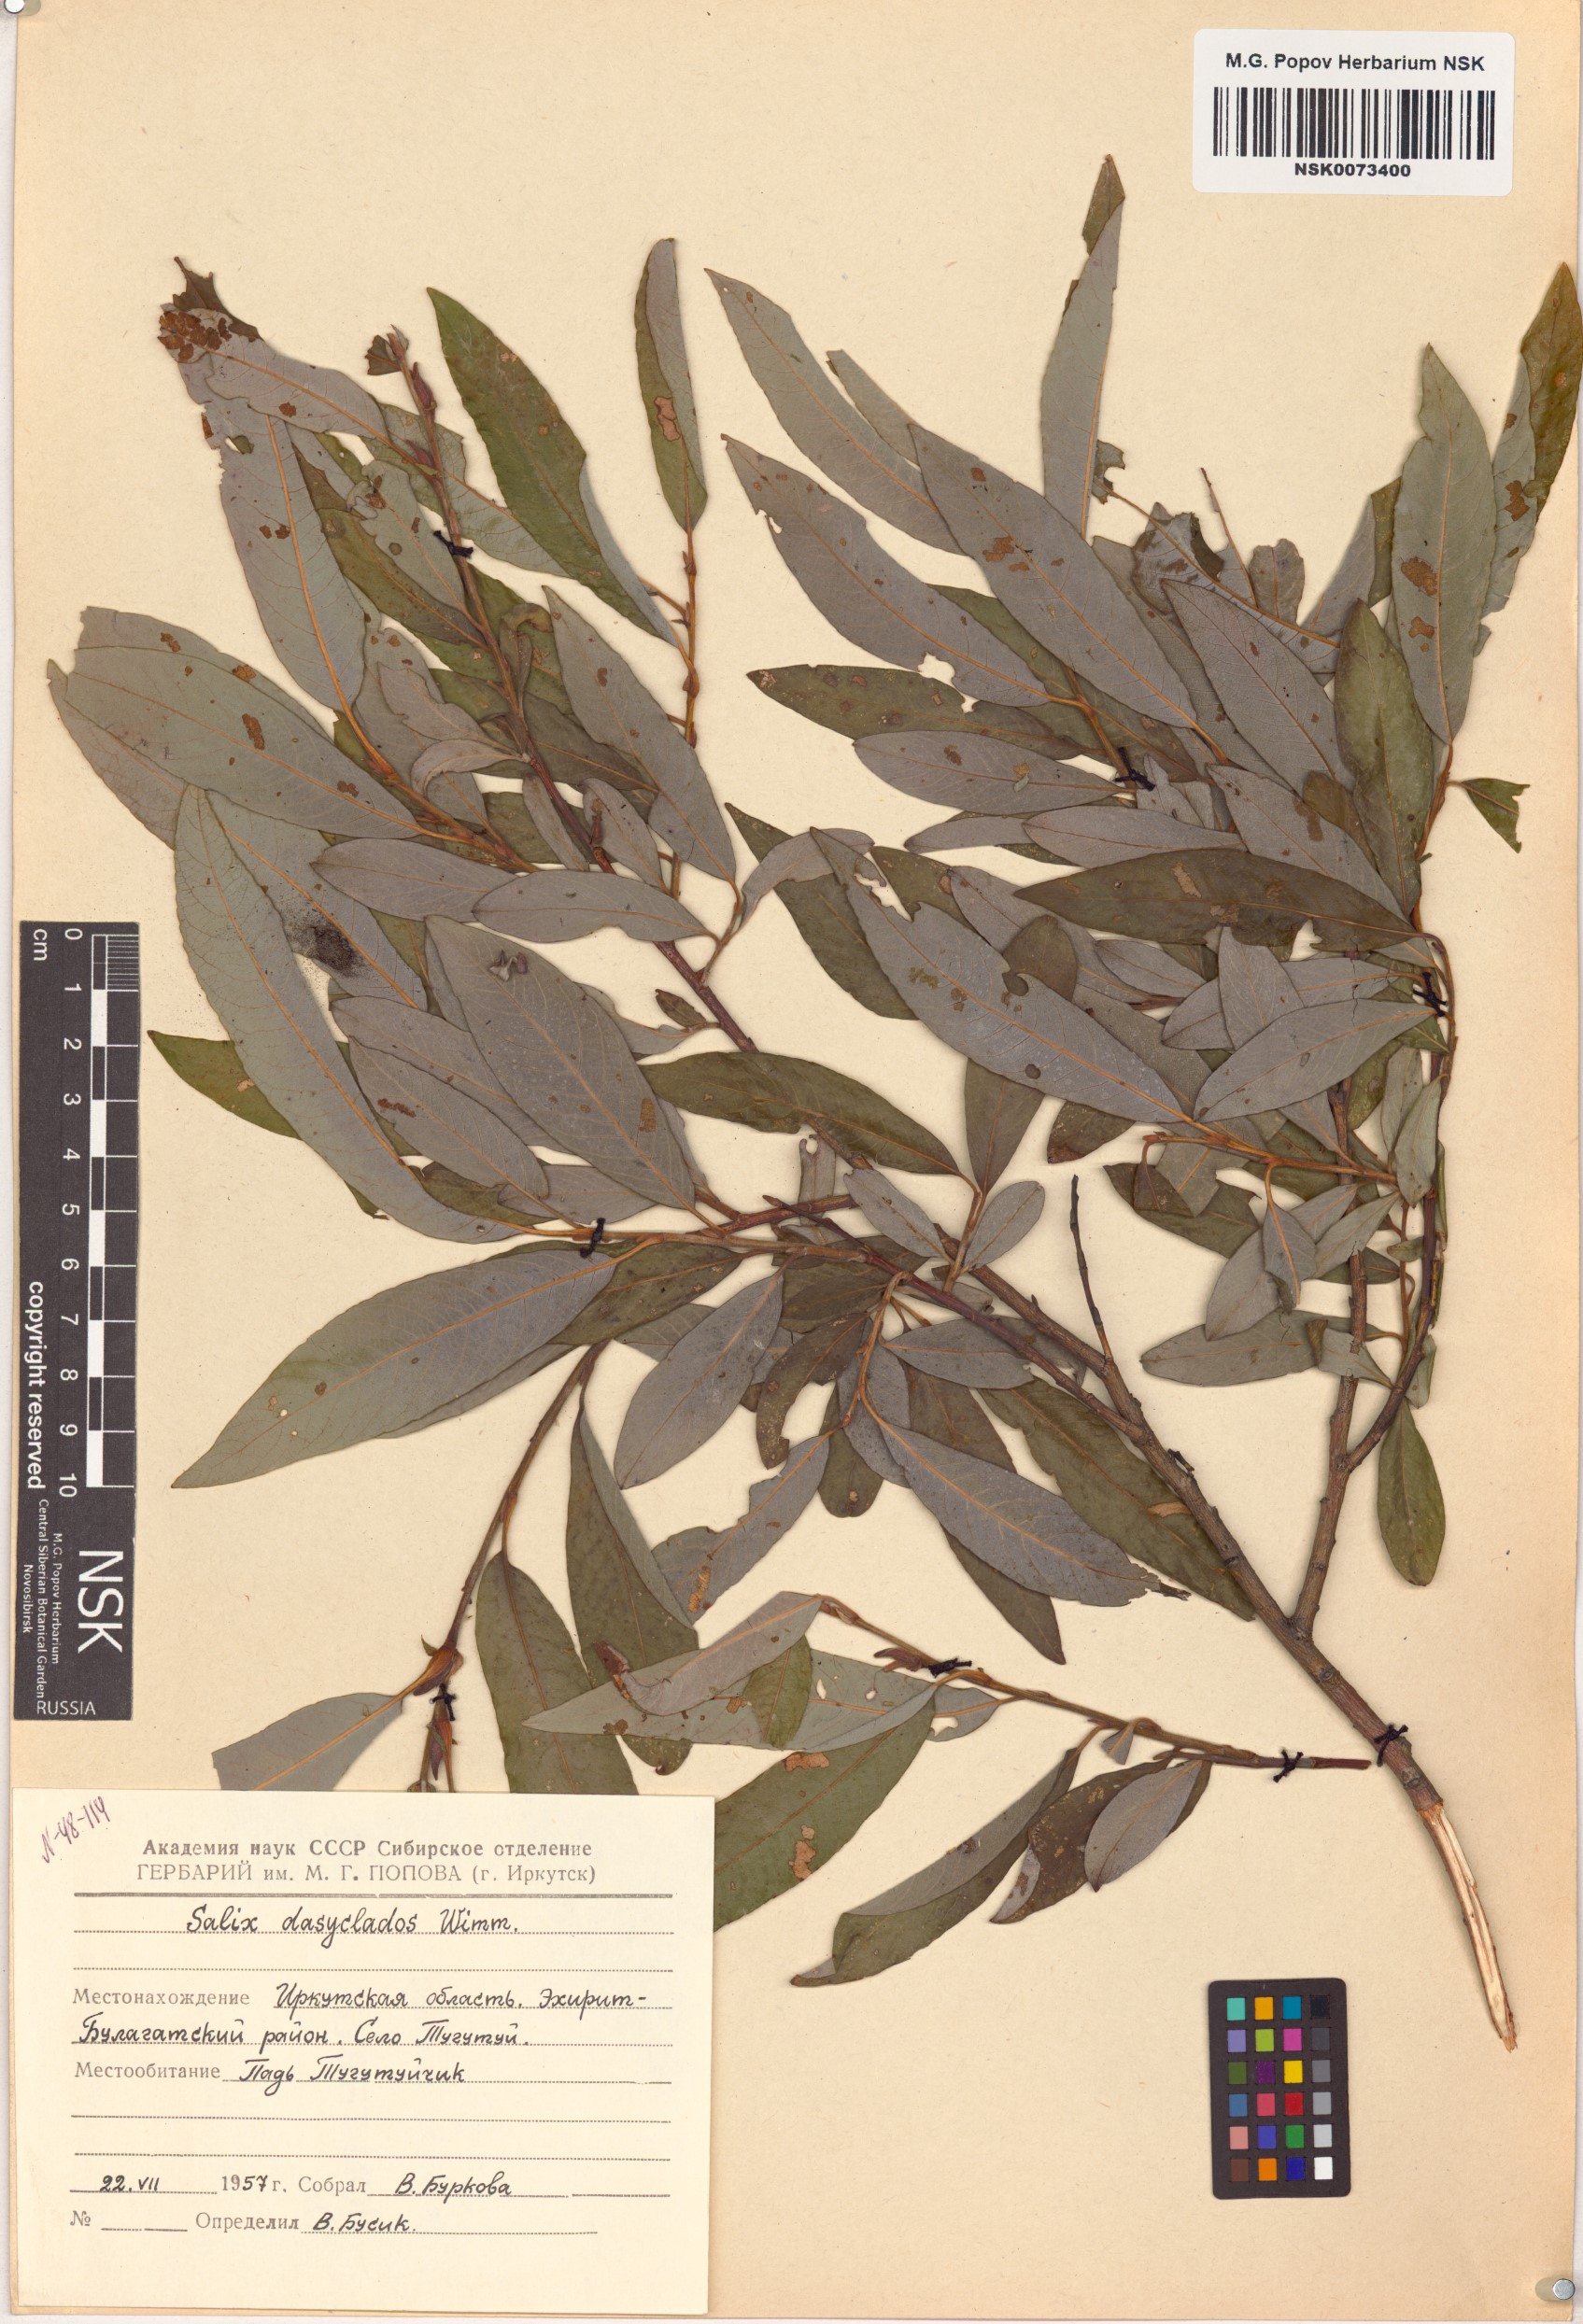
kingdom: Plantae
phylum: Tracheophyta
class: Magnoliopsida
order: Malpighiales
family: Salicaceae
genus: Salix
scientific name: Salix gmelinii
